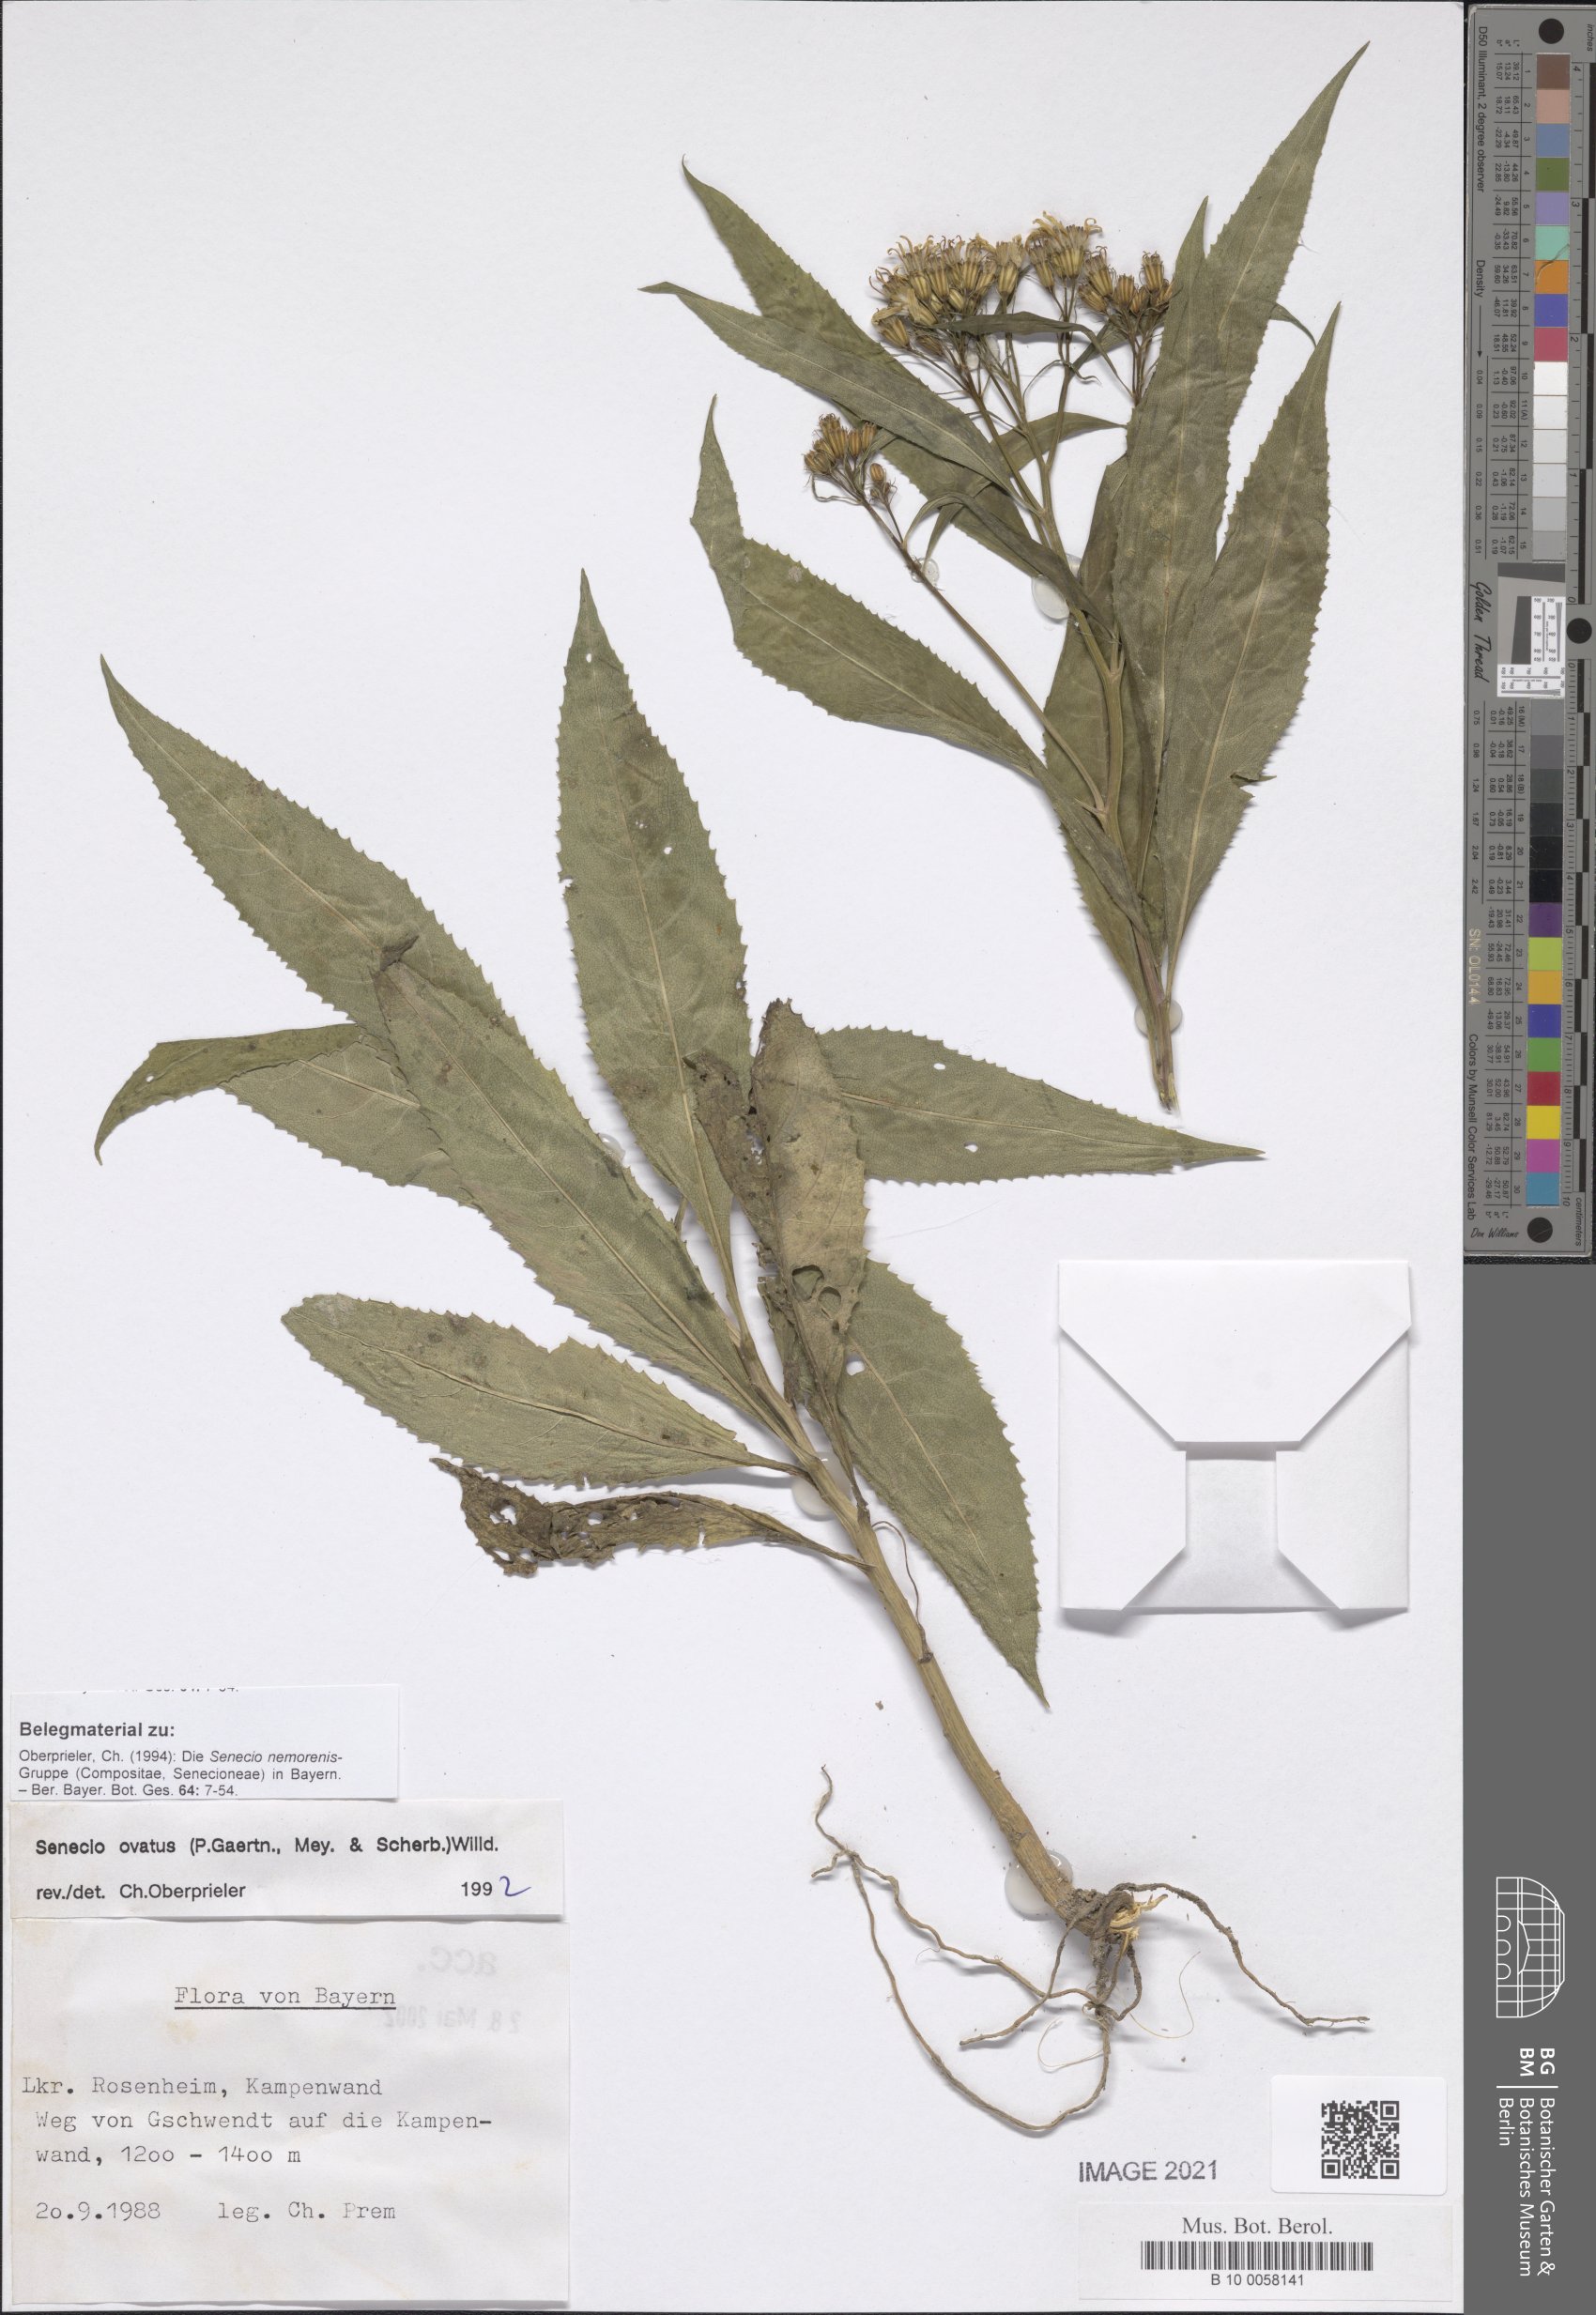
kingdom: Plantae
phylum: Tracheophyta
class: Magnoliopsida
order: Asterales
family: Asteraceae
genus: Senecio
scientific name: Senecio ovatus
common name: Wood ragwort
